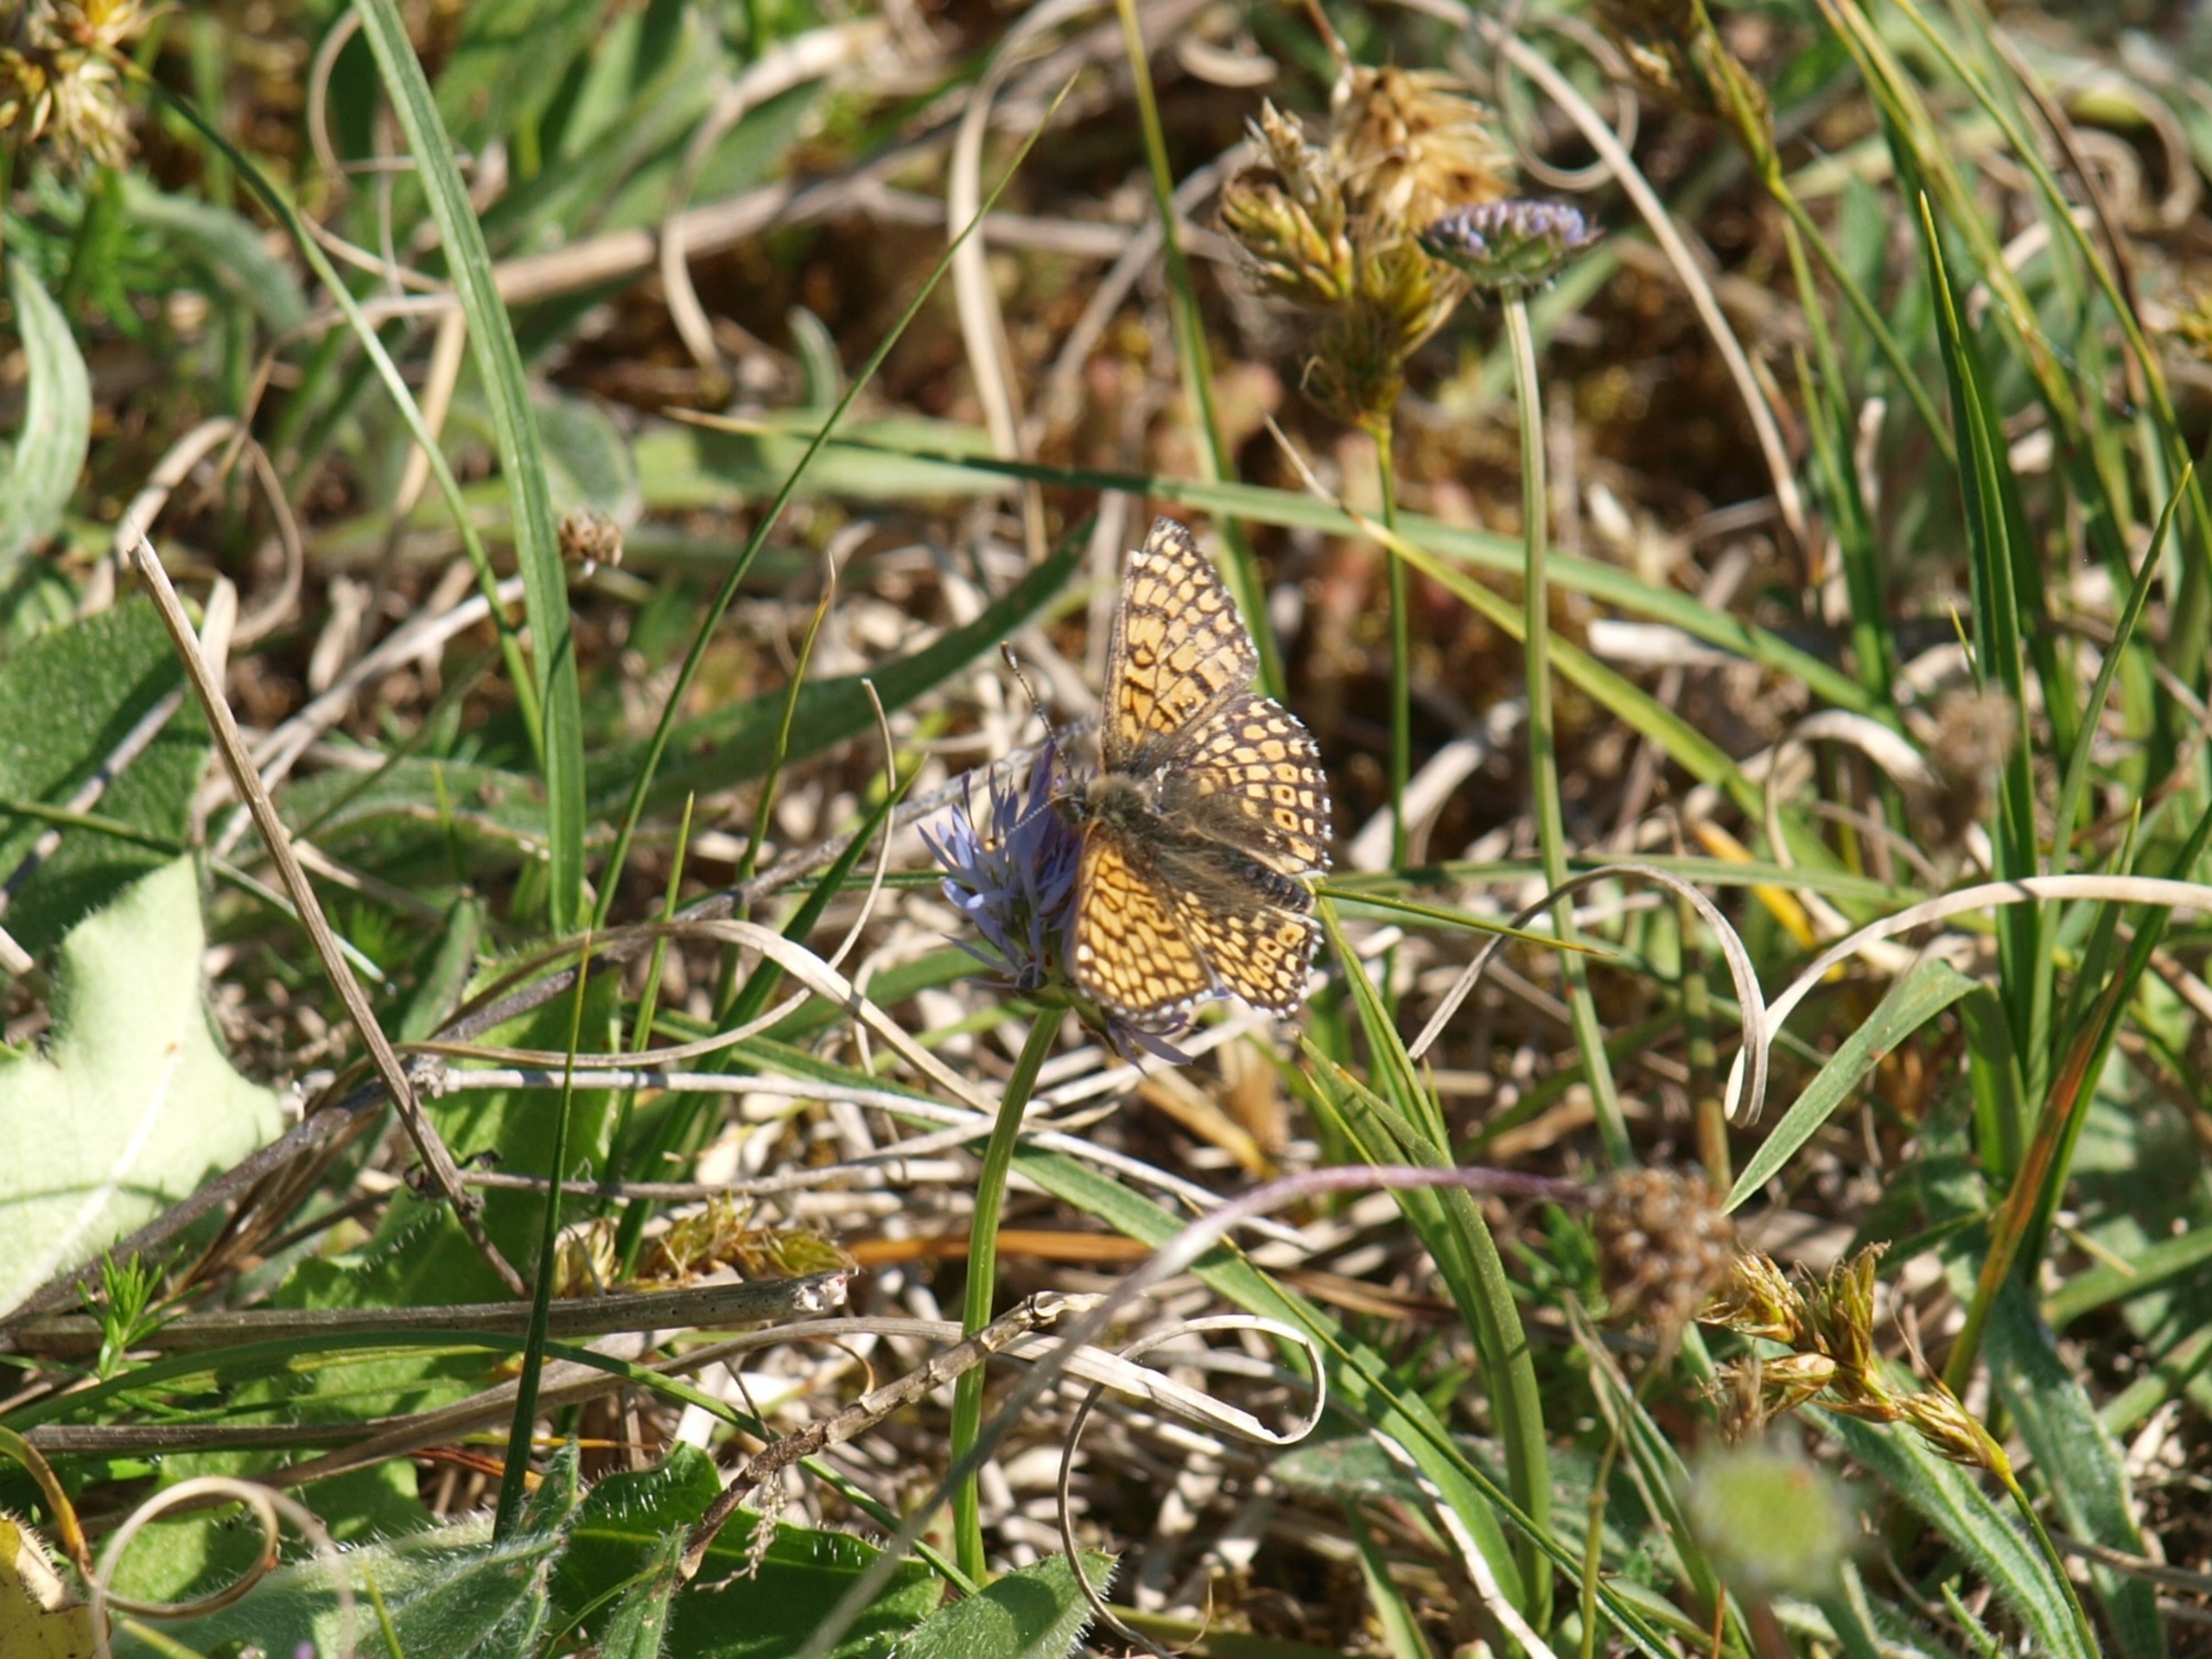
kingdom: Animalia
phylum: Arthropoda
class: Insecta
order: Lepidoptera
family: Nymphalidae
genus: Melitaea
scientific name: Melitaea cinxia
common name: Okkergul pletvinge
